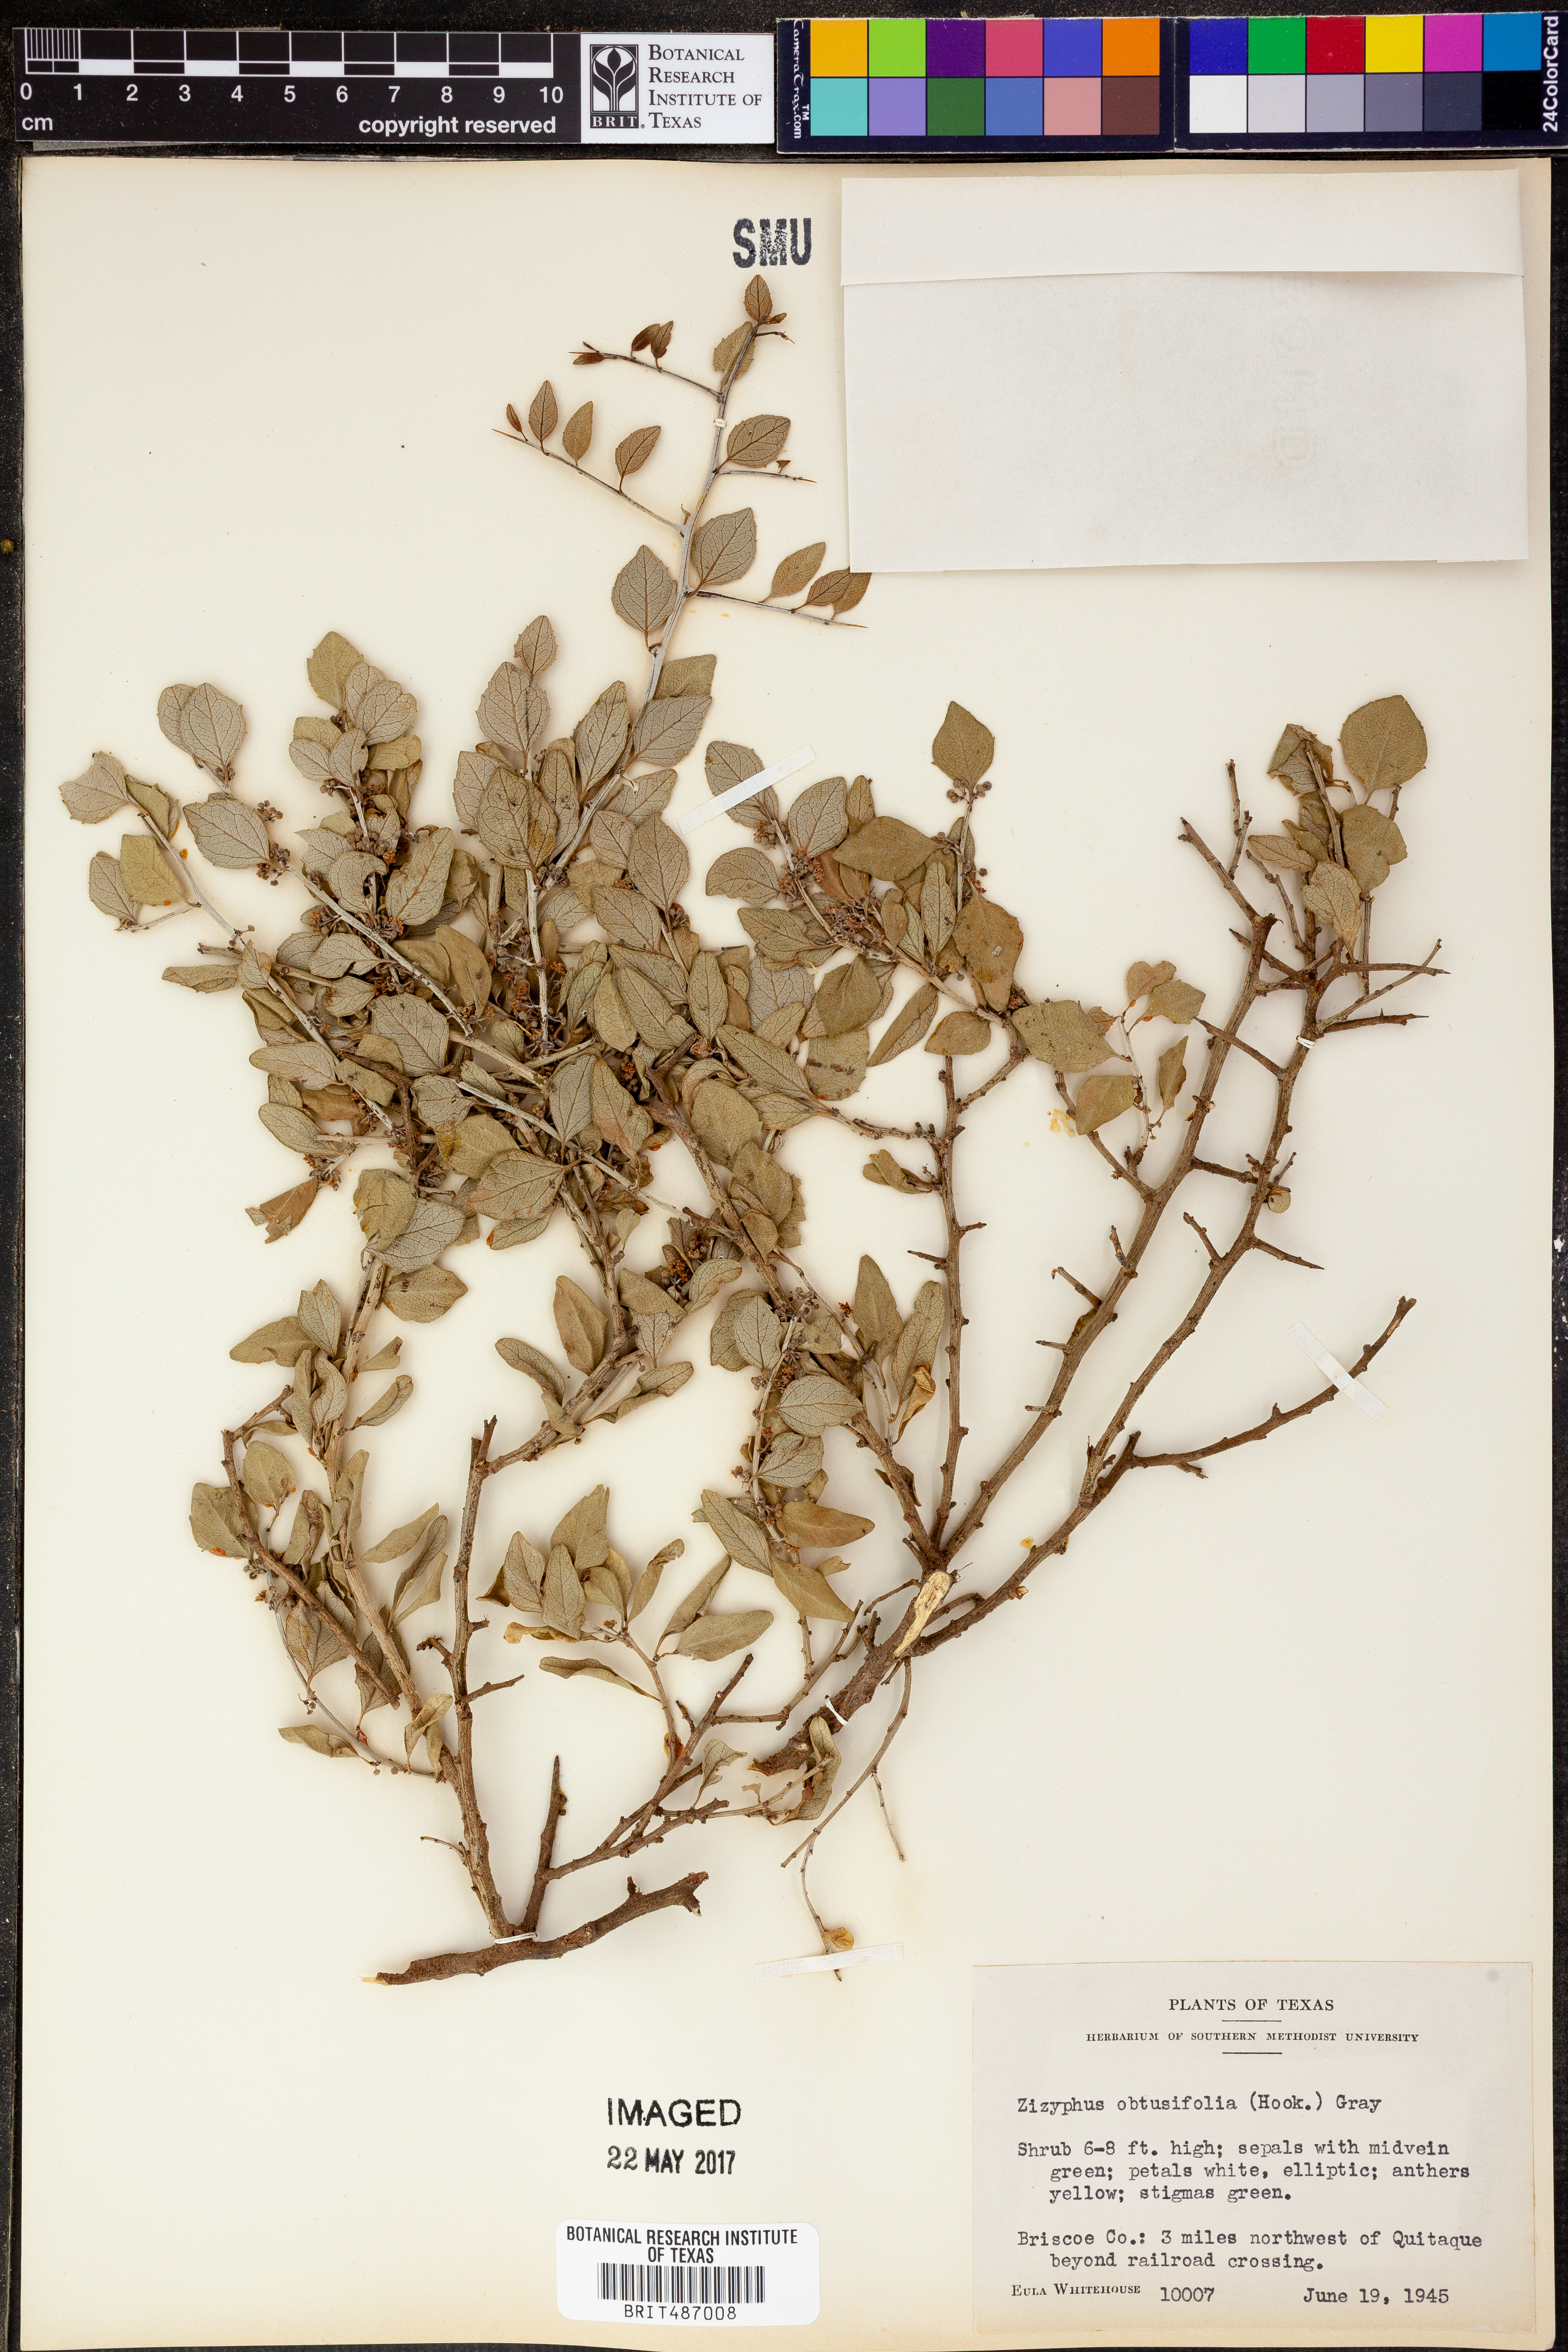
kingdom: Plantae
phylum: Tracheophyta
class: Magnoliopsida
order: Rosales
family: Rhamnaceae
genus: Sarcomphalus
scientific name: Sarcomphalus obtusifolius
